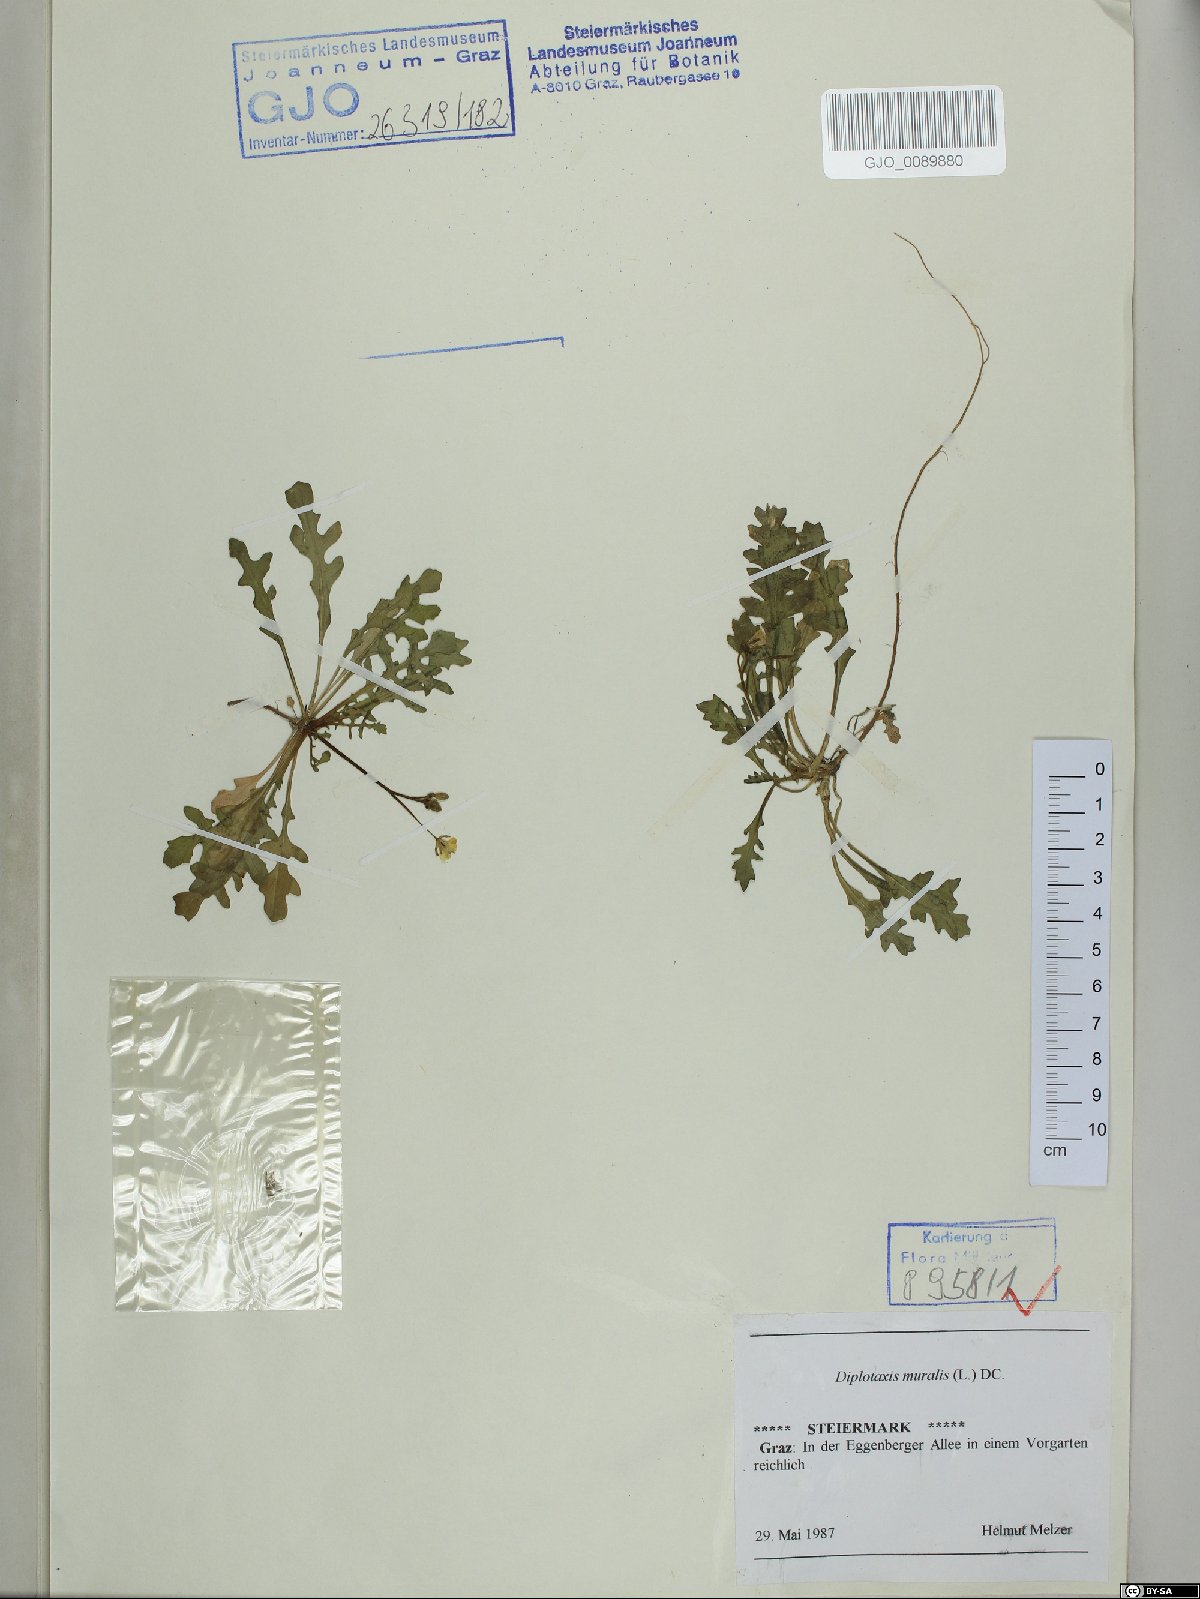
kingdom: Plantae
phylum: Tracheophyta
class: Magnoliopsida
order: Brassicales
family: Brassicaceae
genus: Diplotaxis
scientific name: Diplotaxis muralis
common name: Annual wall-rocket
